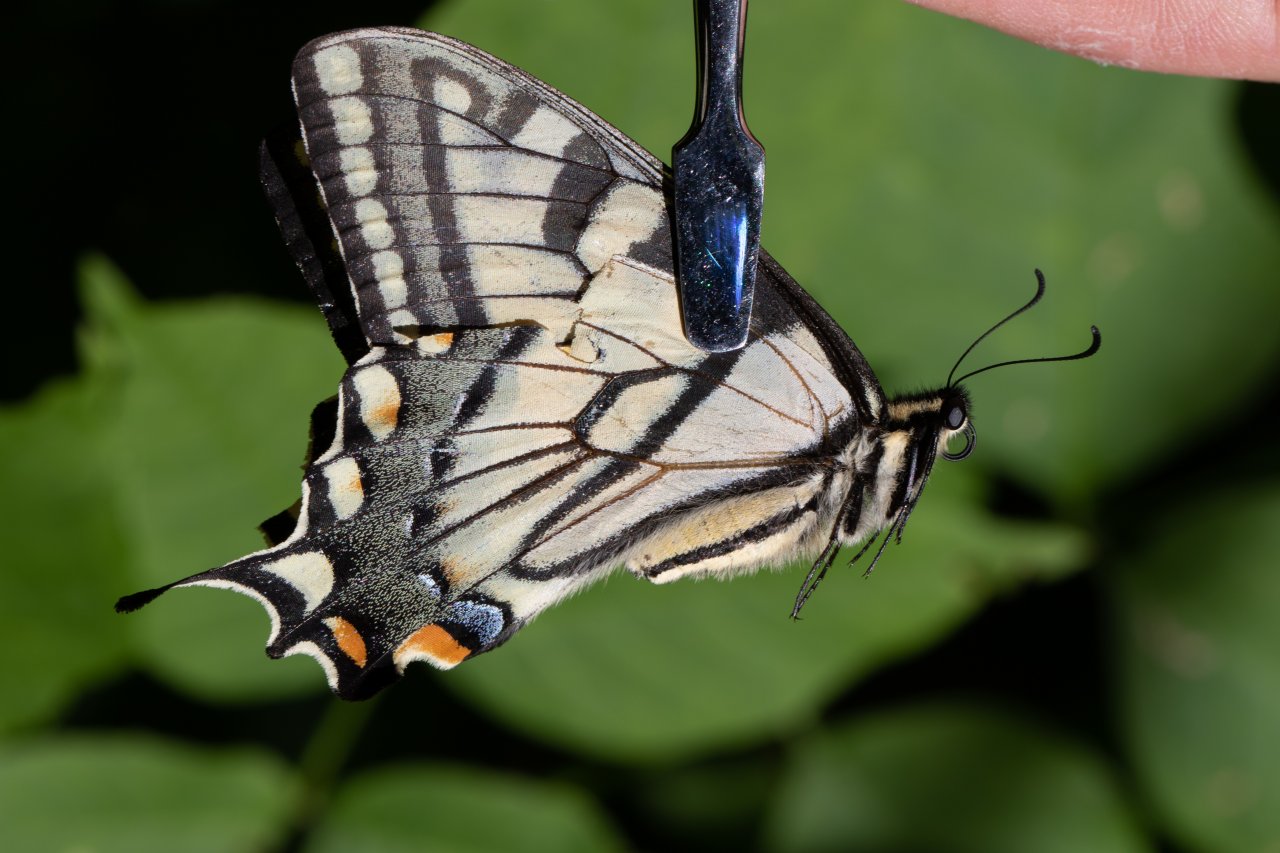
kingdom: Animalia
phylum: Arthropoda
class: Insecta
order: Lepidoptera
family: Papilionidae
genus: Pterourus
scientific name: Pterourus
